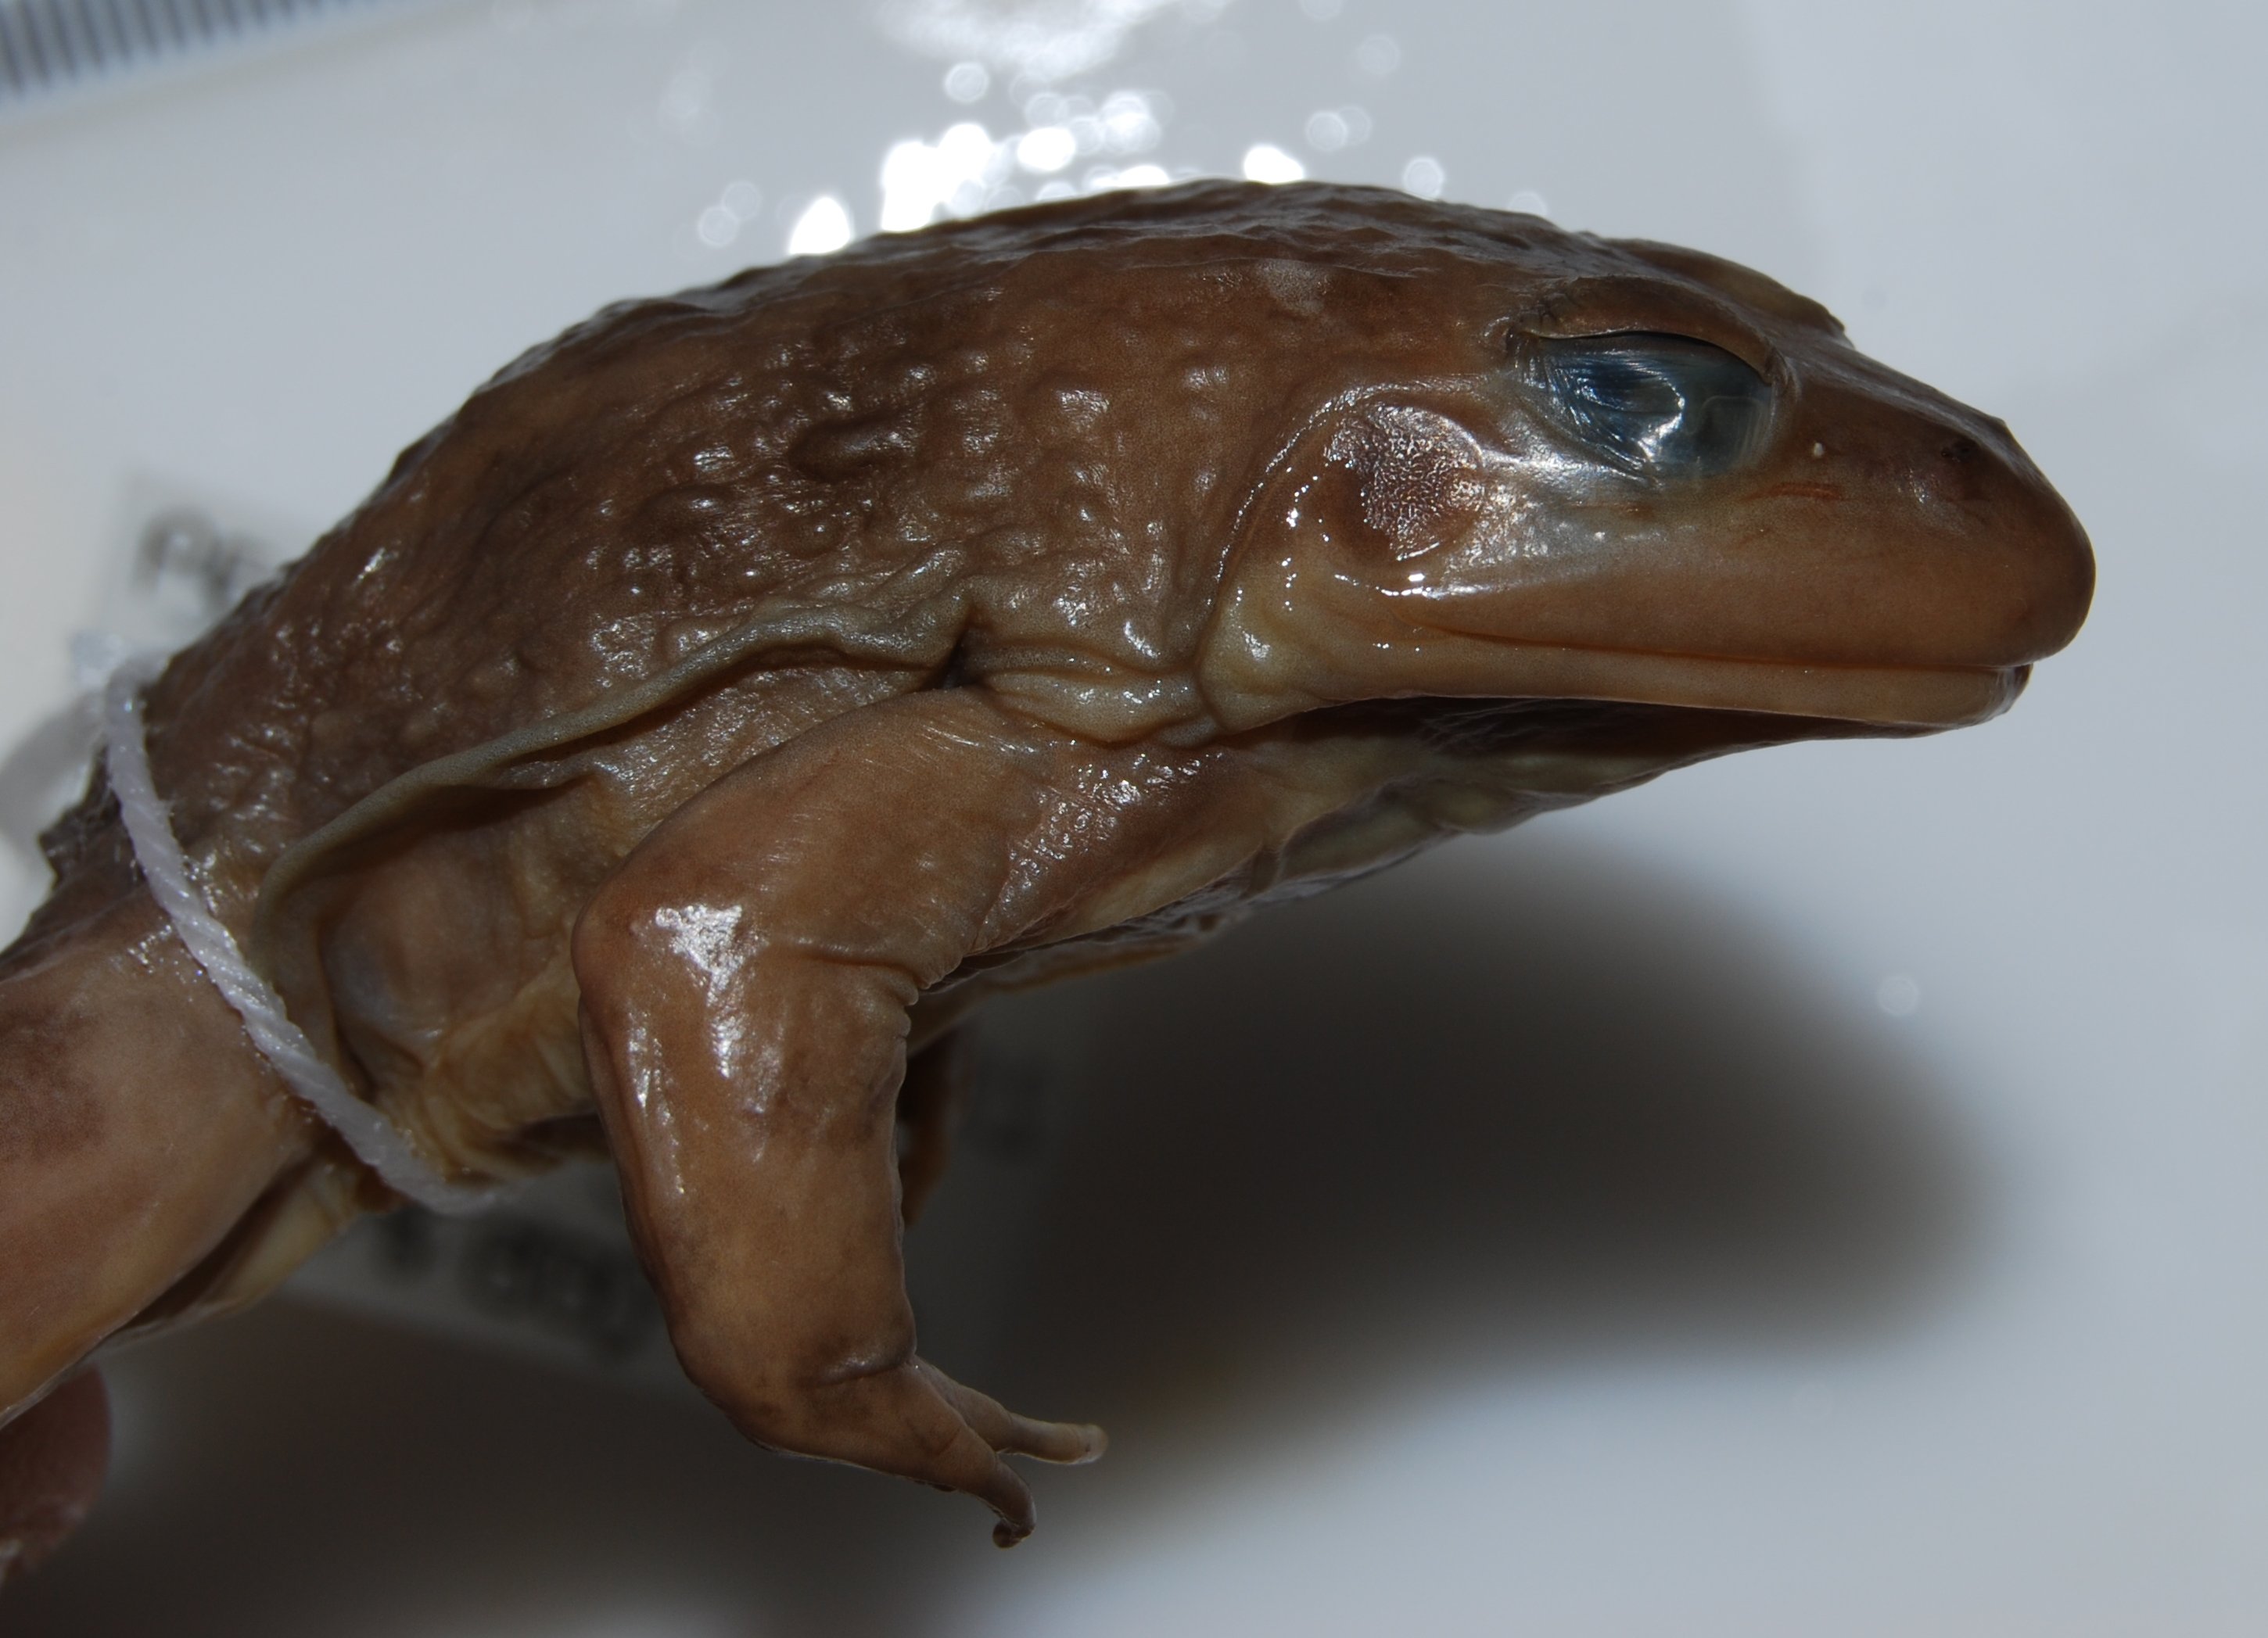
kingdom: Animalia
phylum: Chordata
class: Amphibia
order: Anura
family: Pyxicephalidae
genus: Amietia
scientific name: Amietia fuscigula
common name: Cape rana
